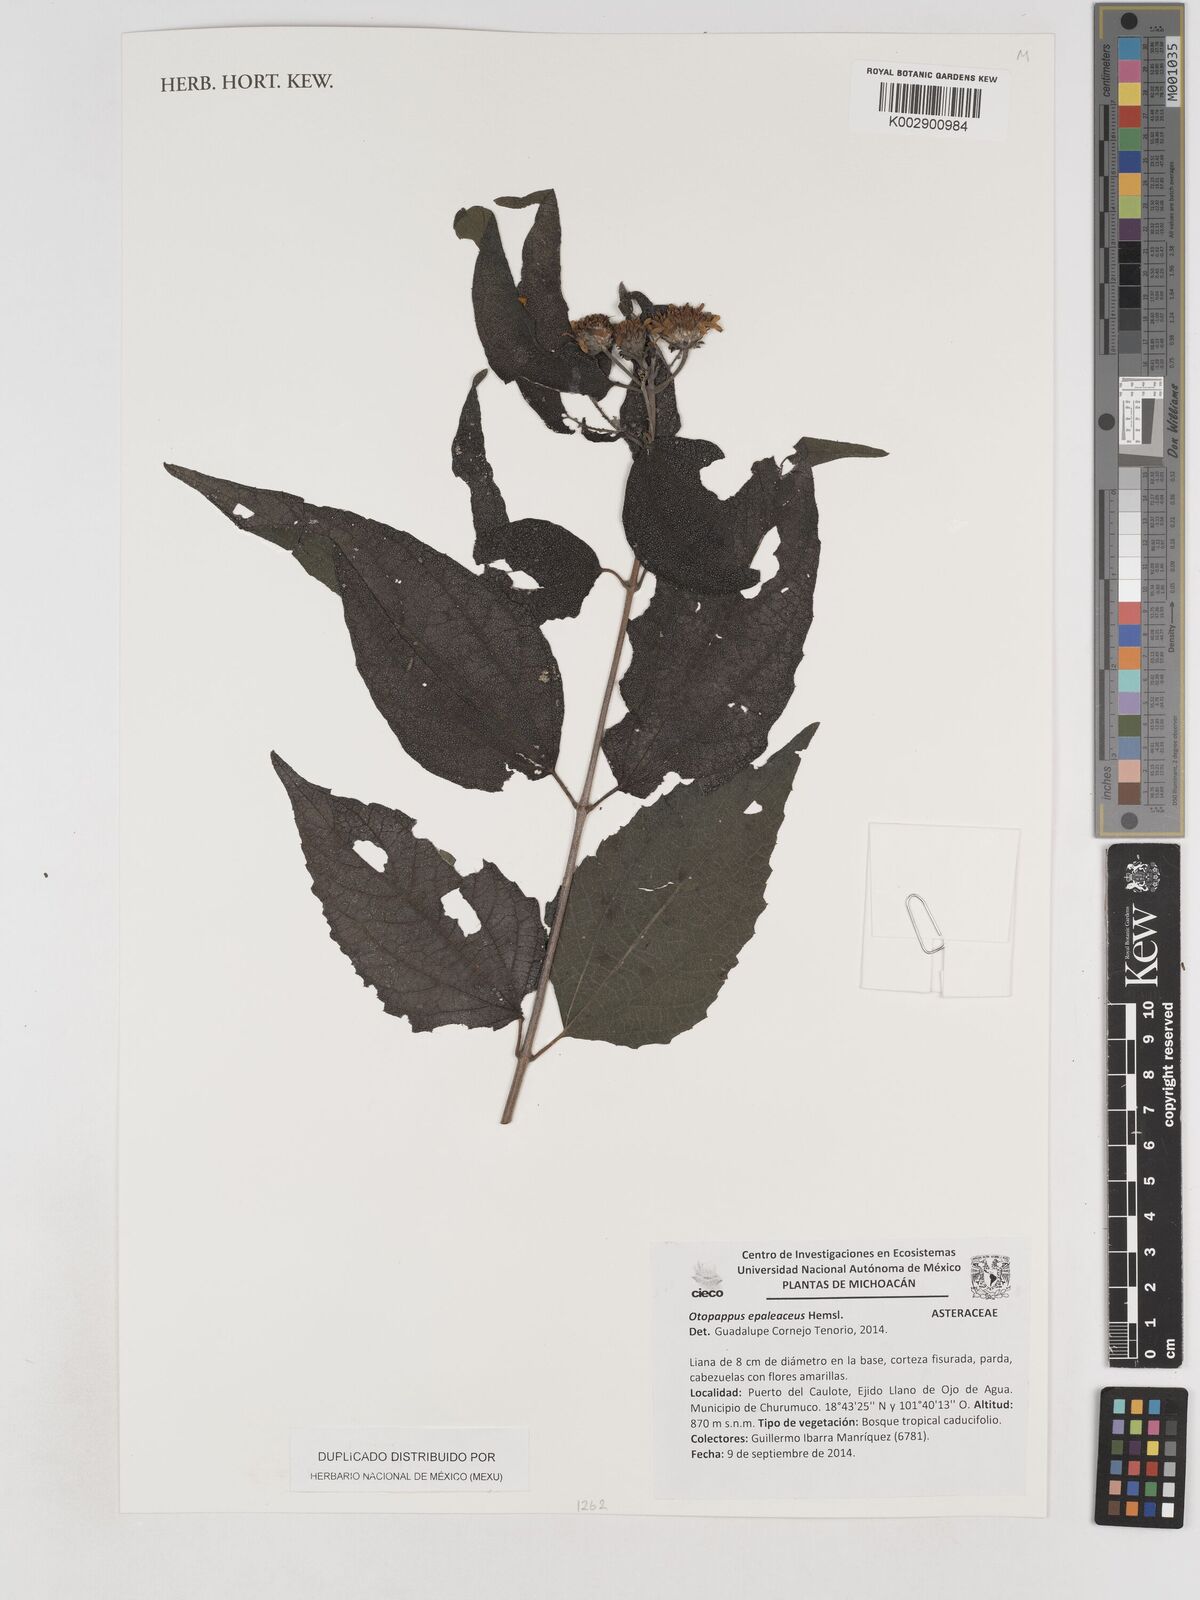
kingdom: Plantae
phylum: Tracheophyta
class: Magnoliopsida
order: Asterales
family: Asteraceae
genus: Otopappus
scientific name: Otopappus epaleaceus
